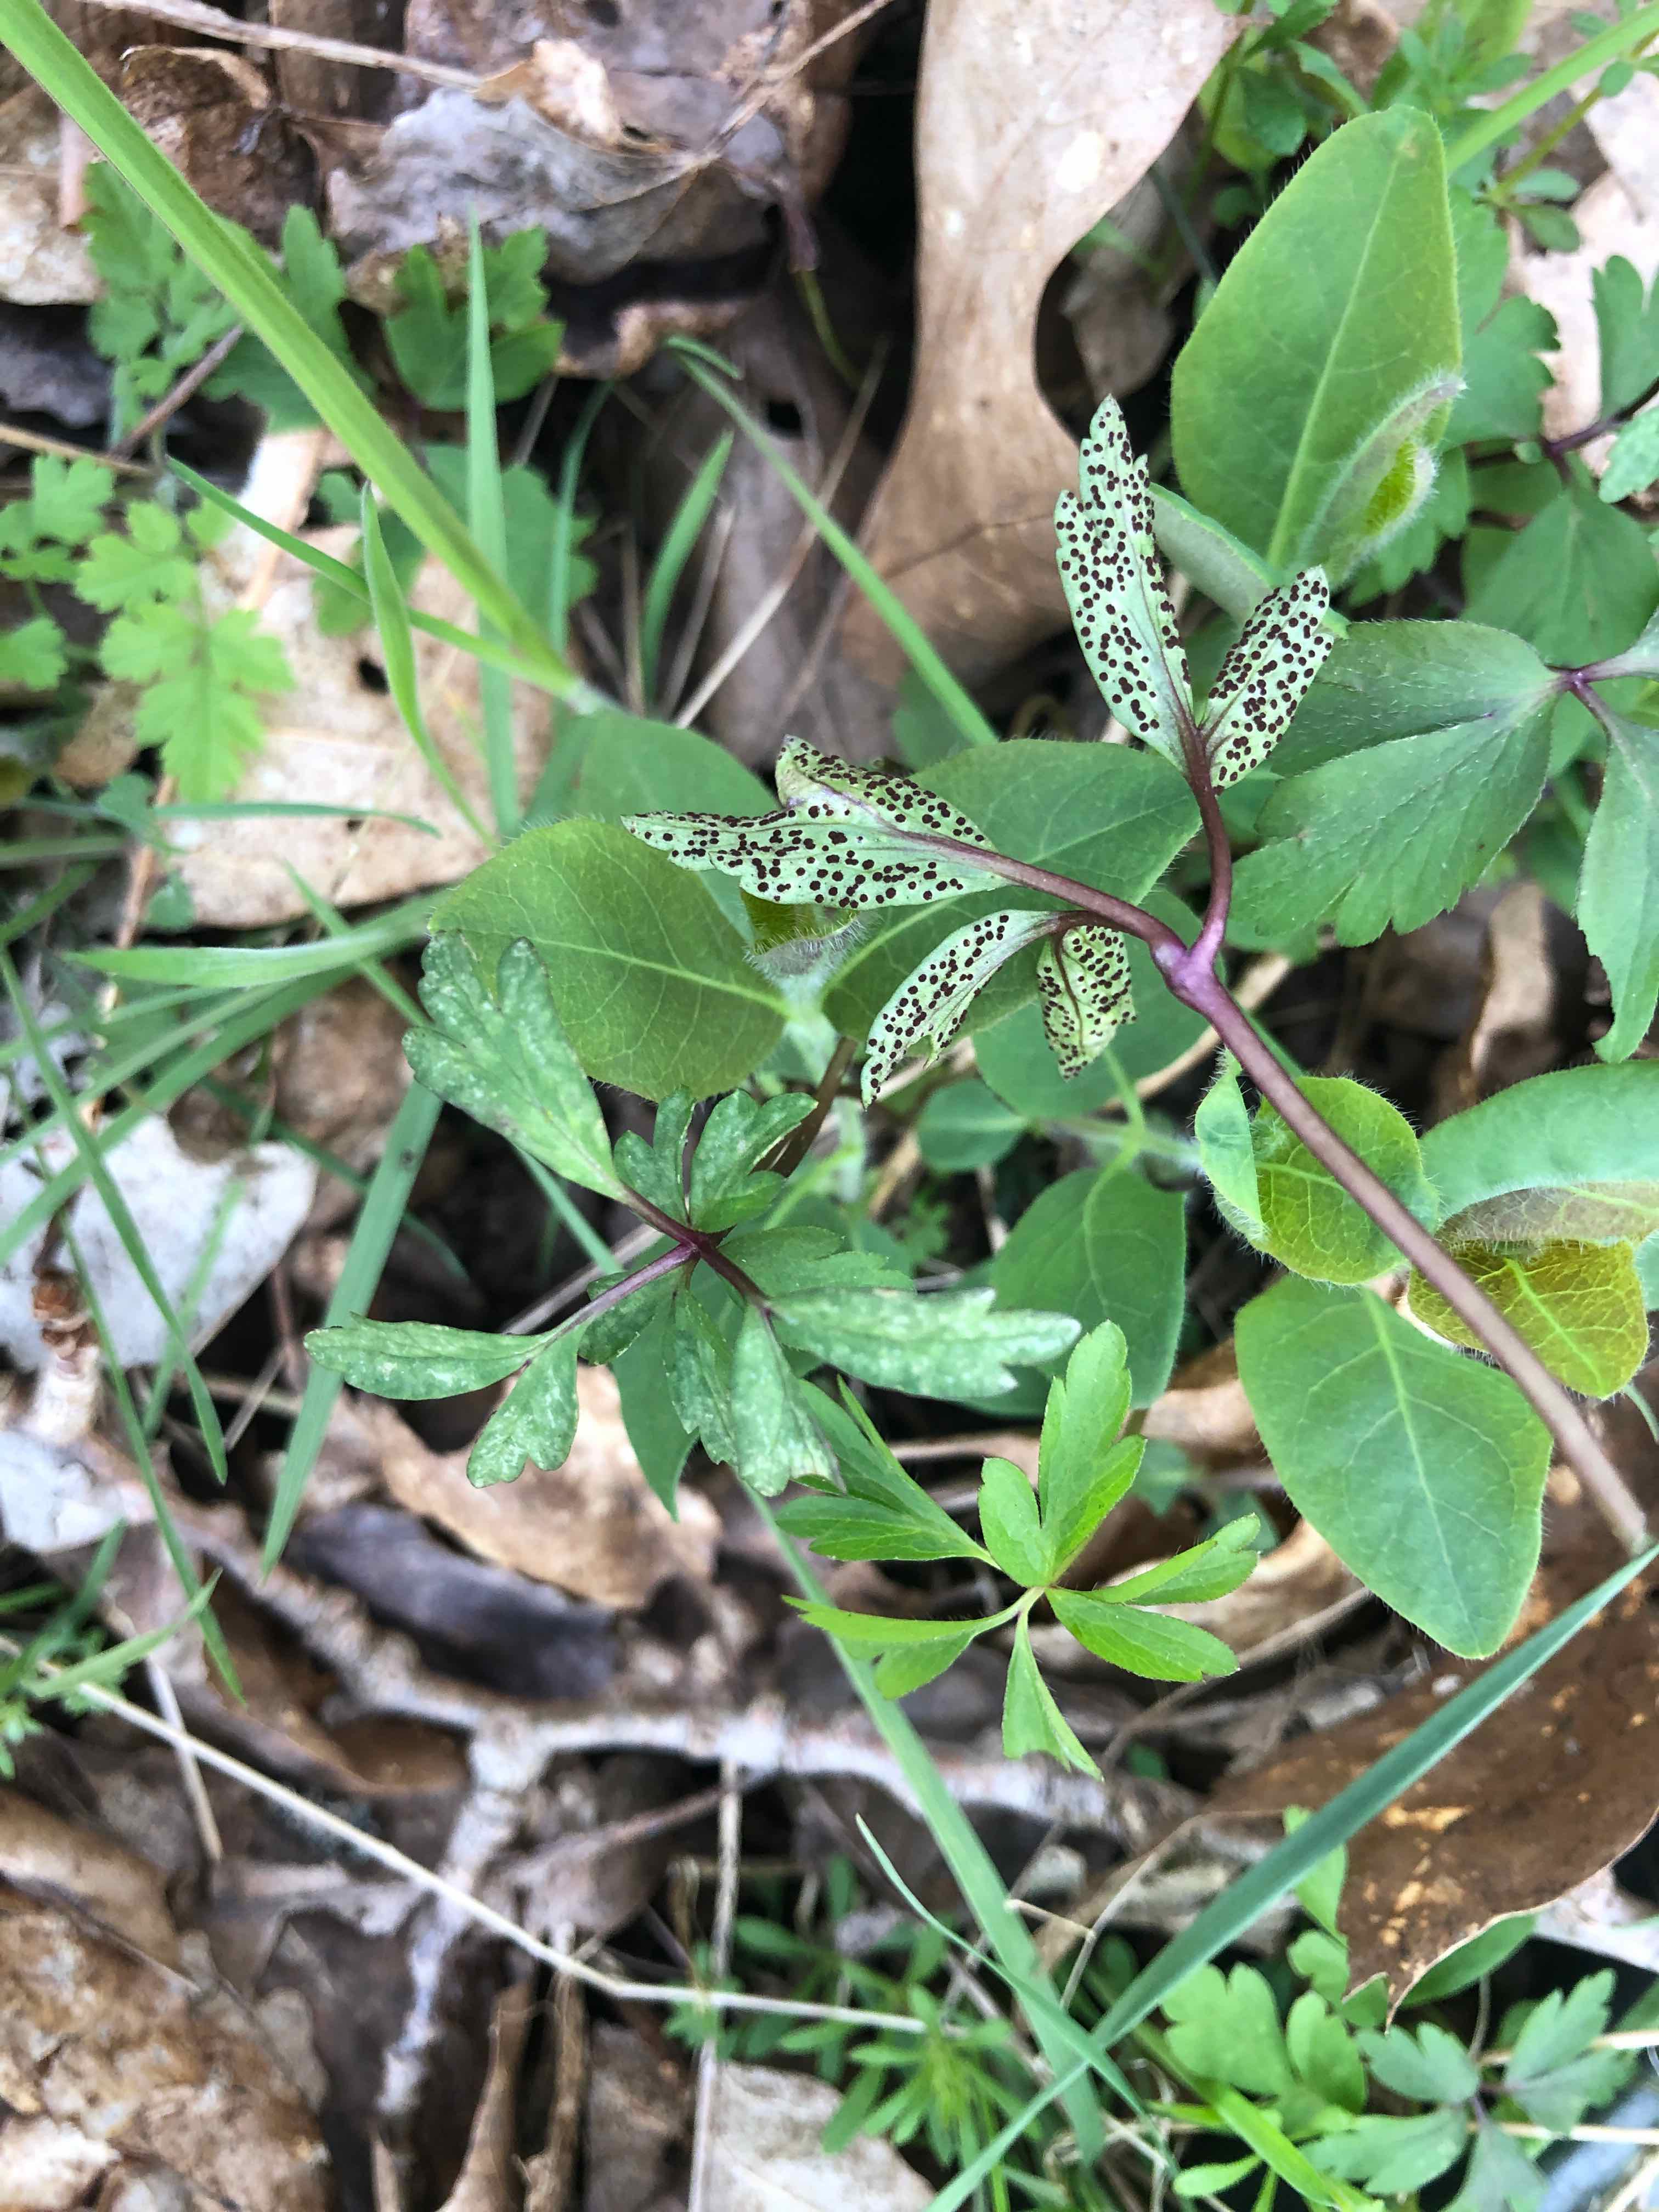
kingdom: Fungi
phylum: Basidiomycota
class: Pucciniomycetes
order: Pucciniales
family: Tranzscheliaceae
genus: Tranzschelia
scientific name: Tranzschelia anemones
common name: anemone-knæksporerust
